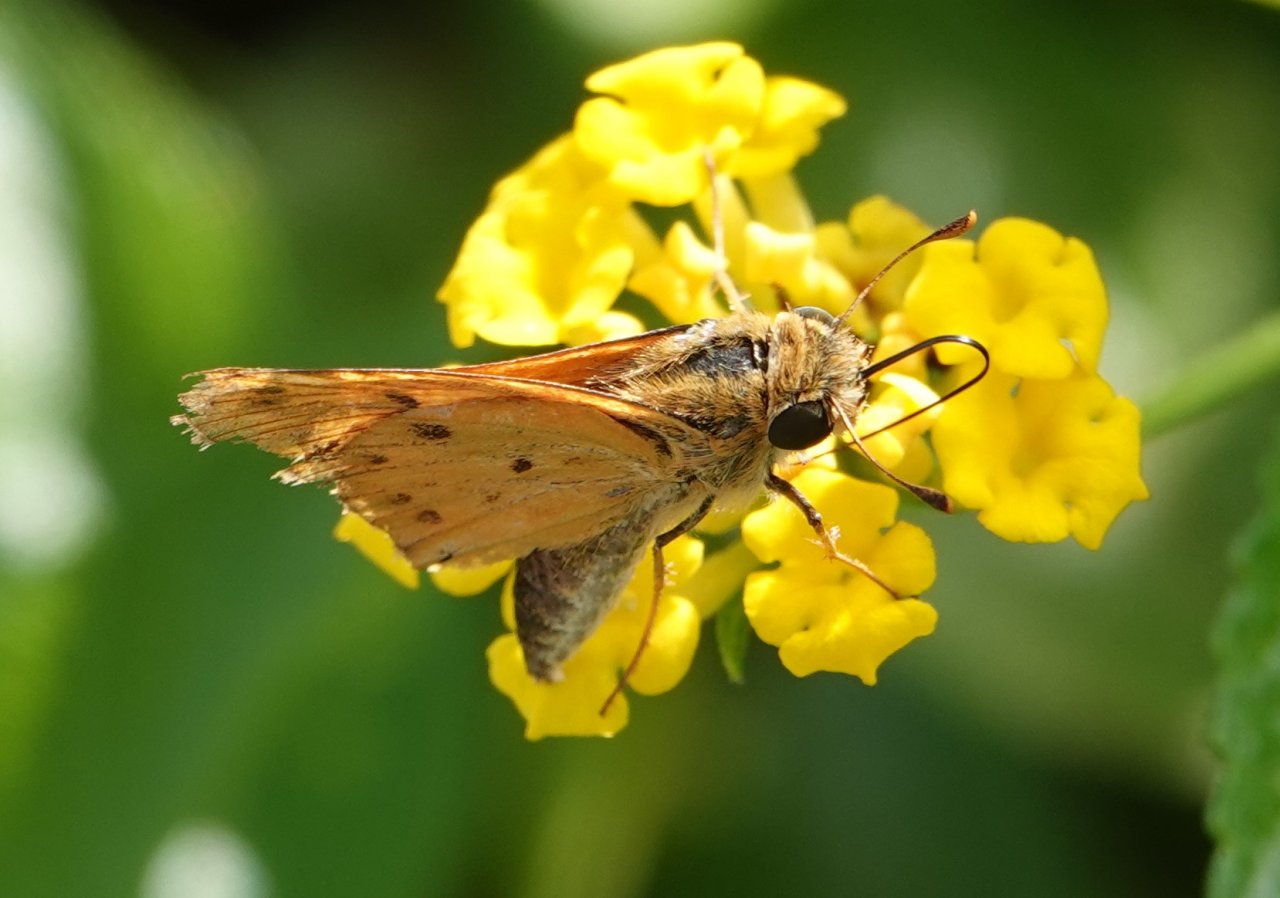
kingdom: Animalia
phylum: Arthropoda
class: Insecta
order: Lepidoptera
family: Hesperiidae
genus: Hylephila
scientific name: Hylephila phyleus
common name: Fiery Skipper
